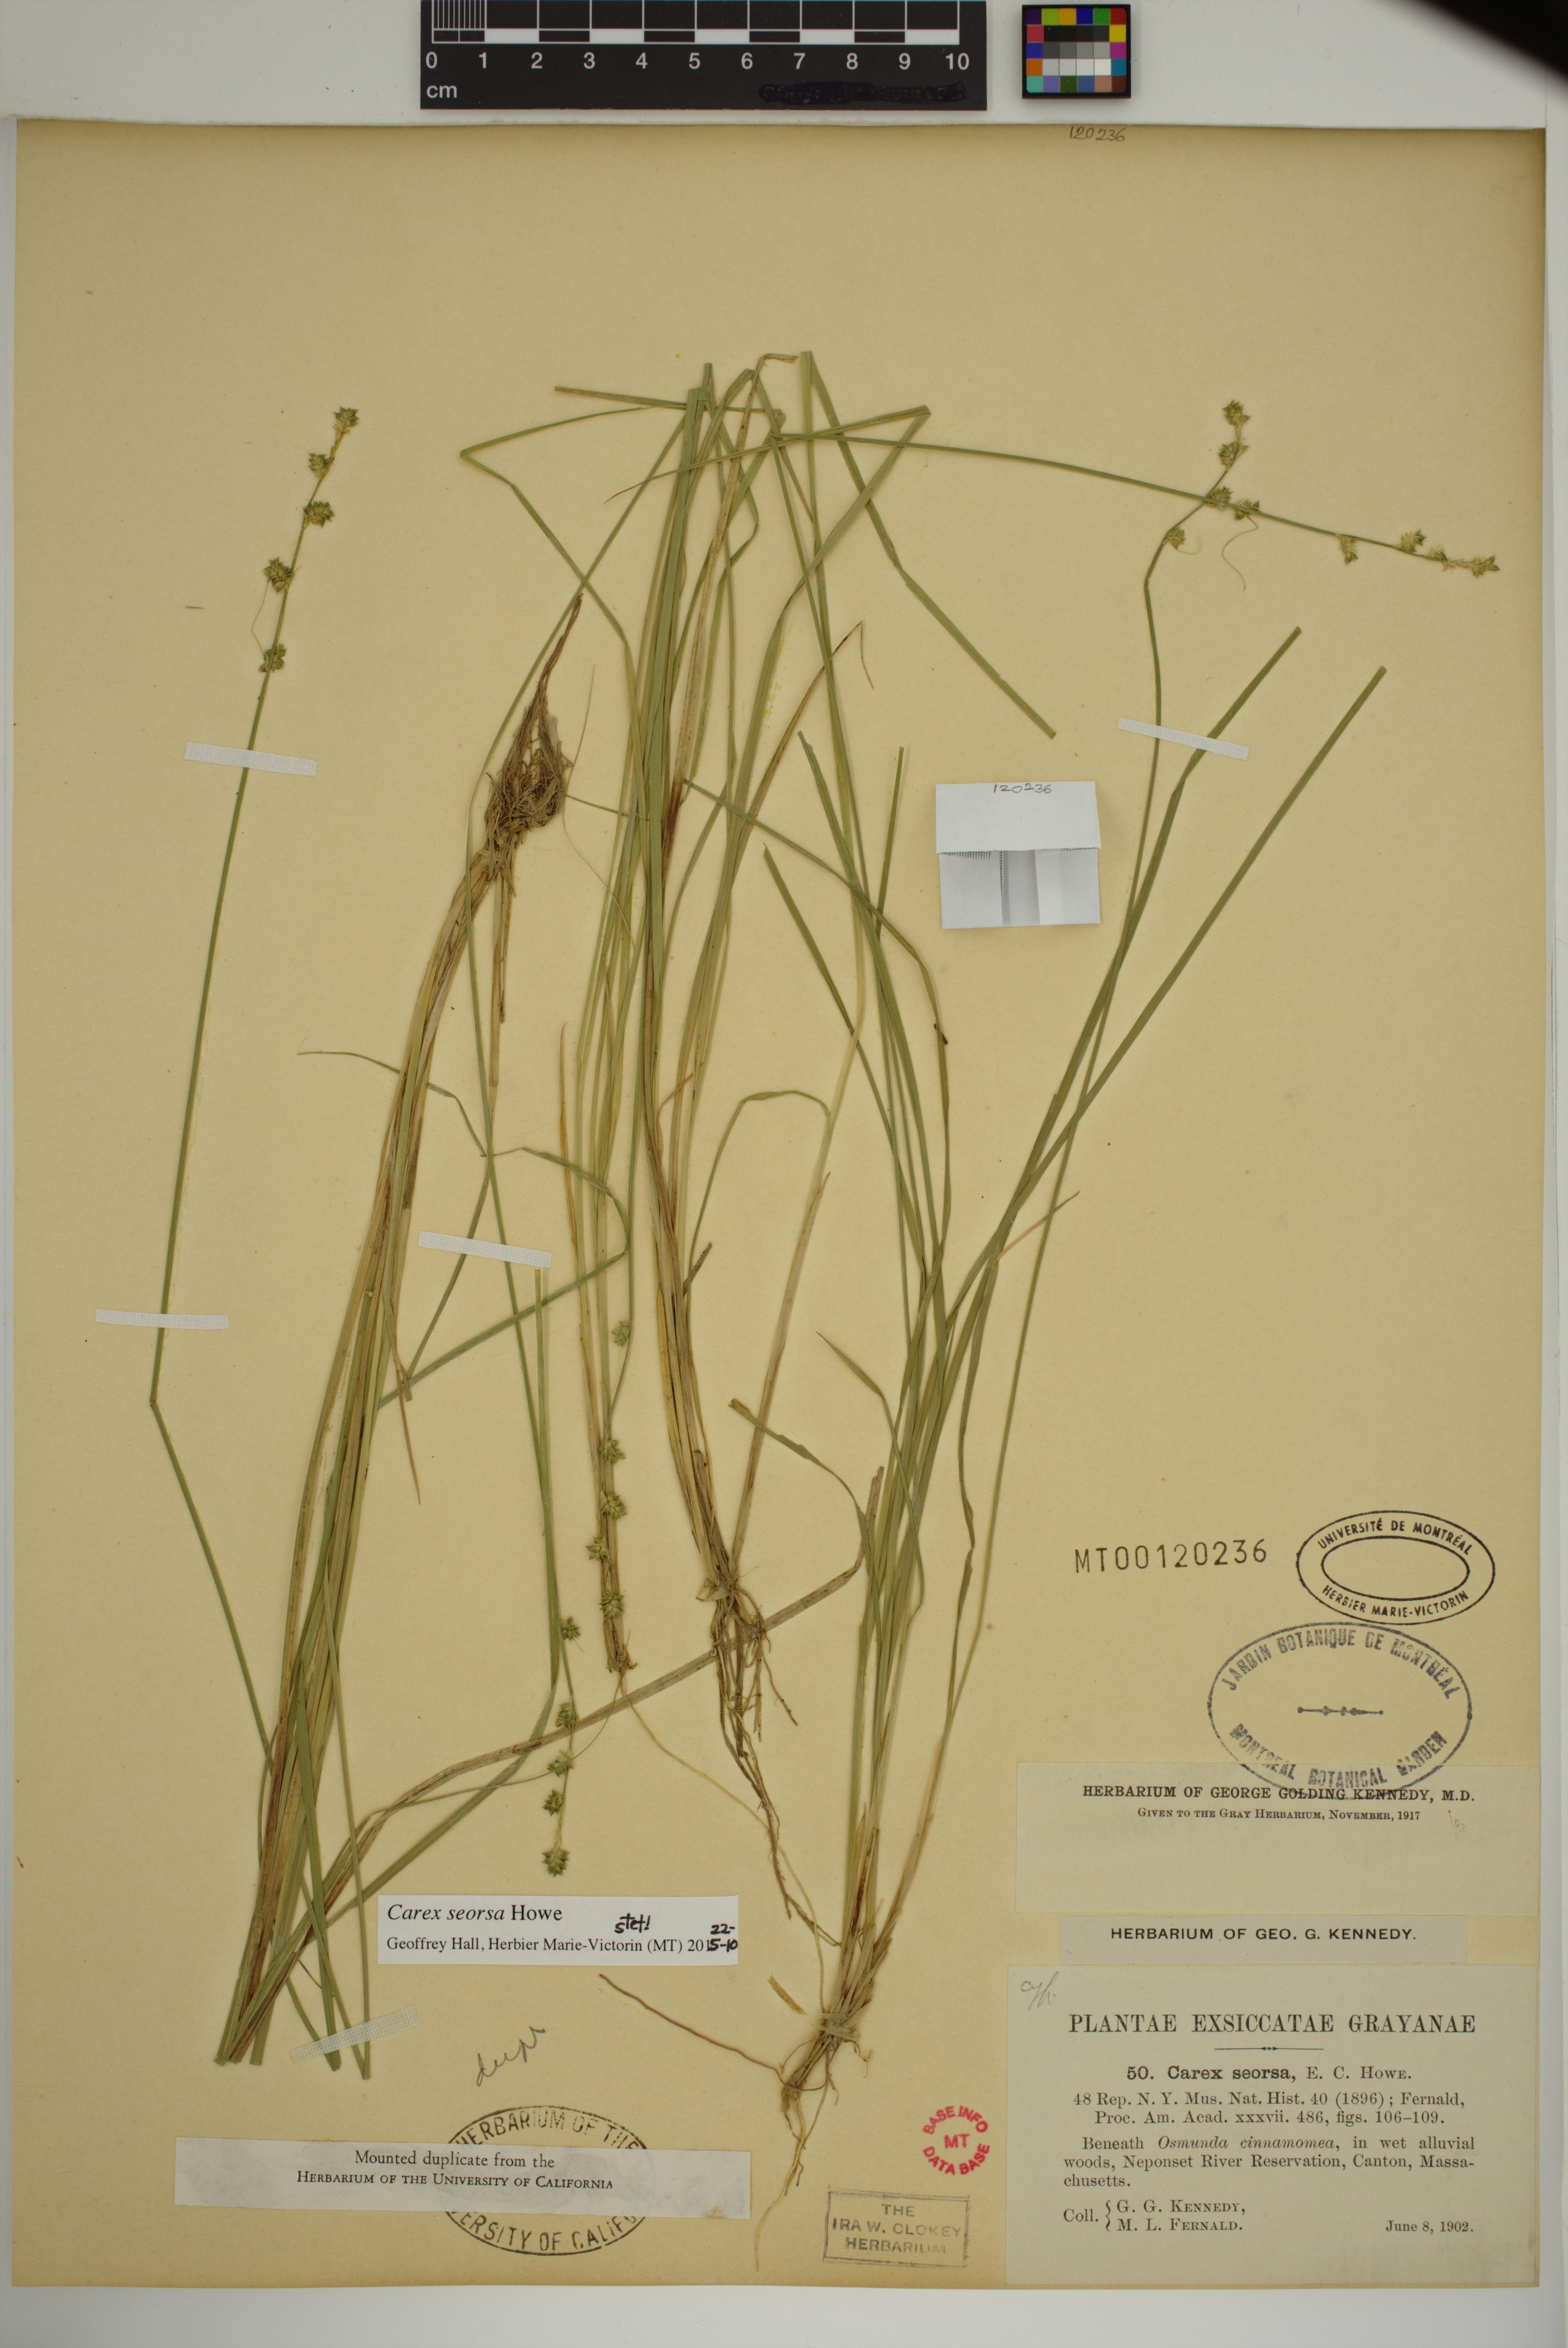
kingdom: Plantae
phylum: Tracheophyta
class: Liliopsida
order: Poales
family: Cyperaceae
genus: Carex
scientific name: Carex seorsa
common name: Swamp star sedge
